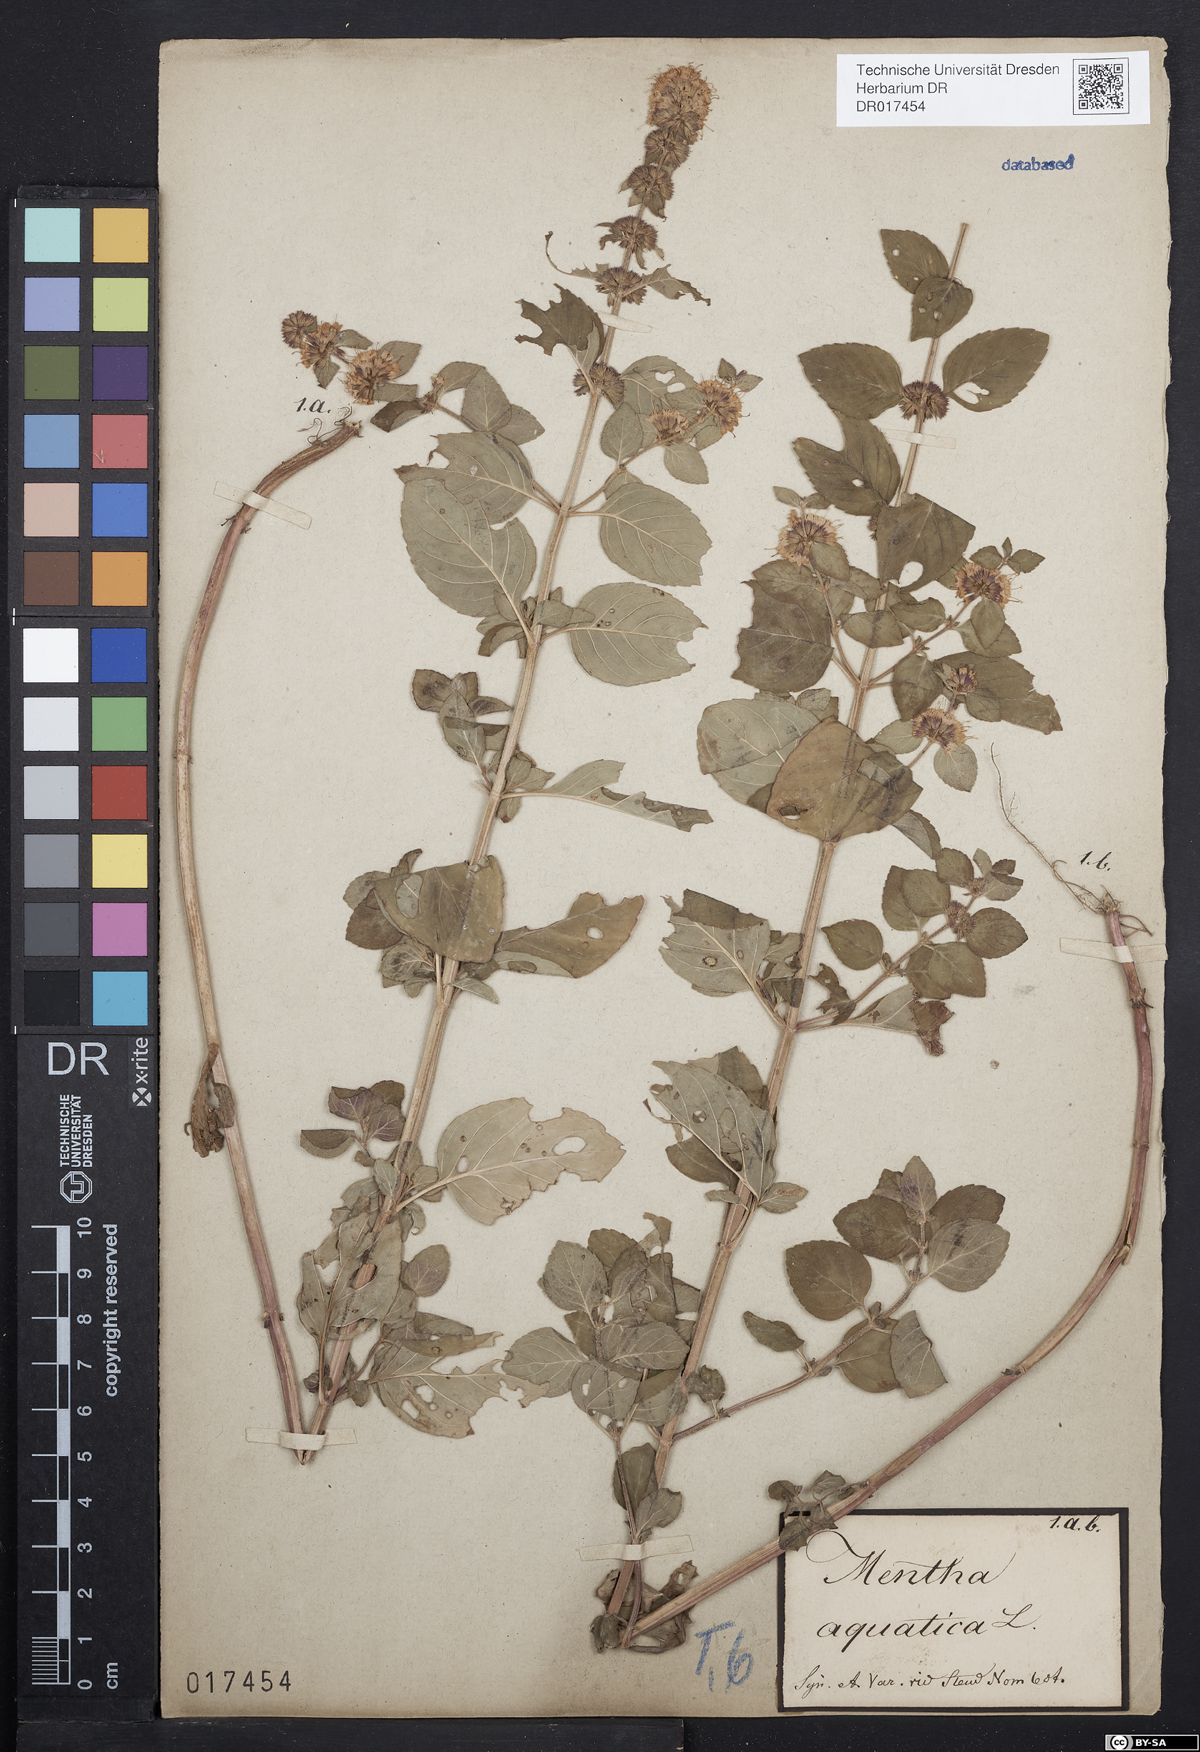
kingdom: Plantae
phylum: Tracheophyta
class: Magnoliopsida
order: Lamiales
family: Lamiaceae
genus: Mentha
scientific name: Mentha aquatica
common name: Water mint
